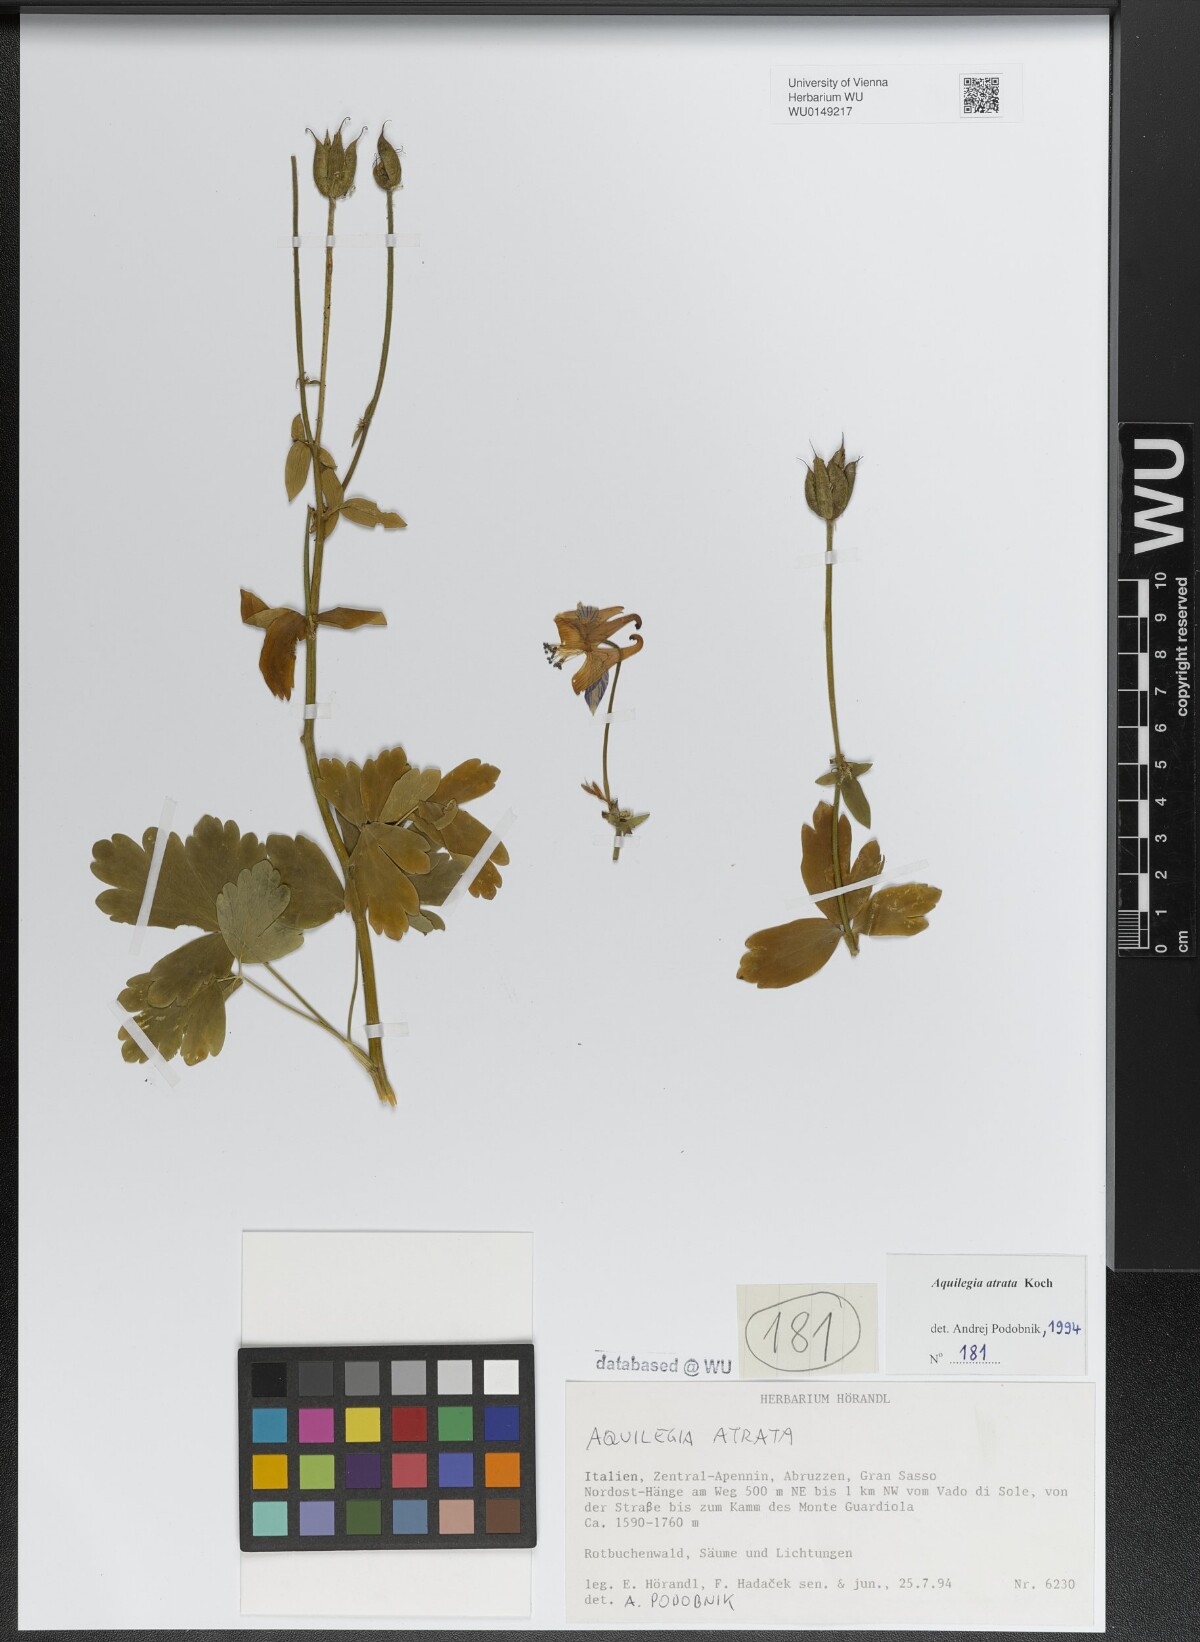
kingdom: Plantae
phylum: Tracheophyta
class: Magnoliopsida
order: Ranunculales
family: Ranunculaceae
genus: Aquilegia
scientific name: Aquilegia atrata
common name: Dark columbine
